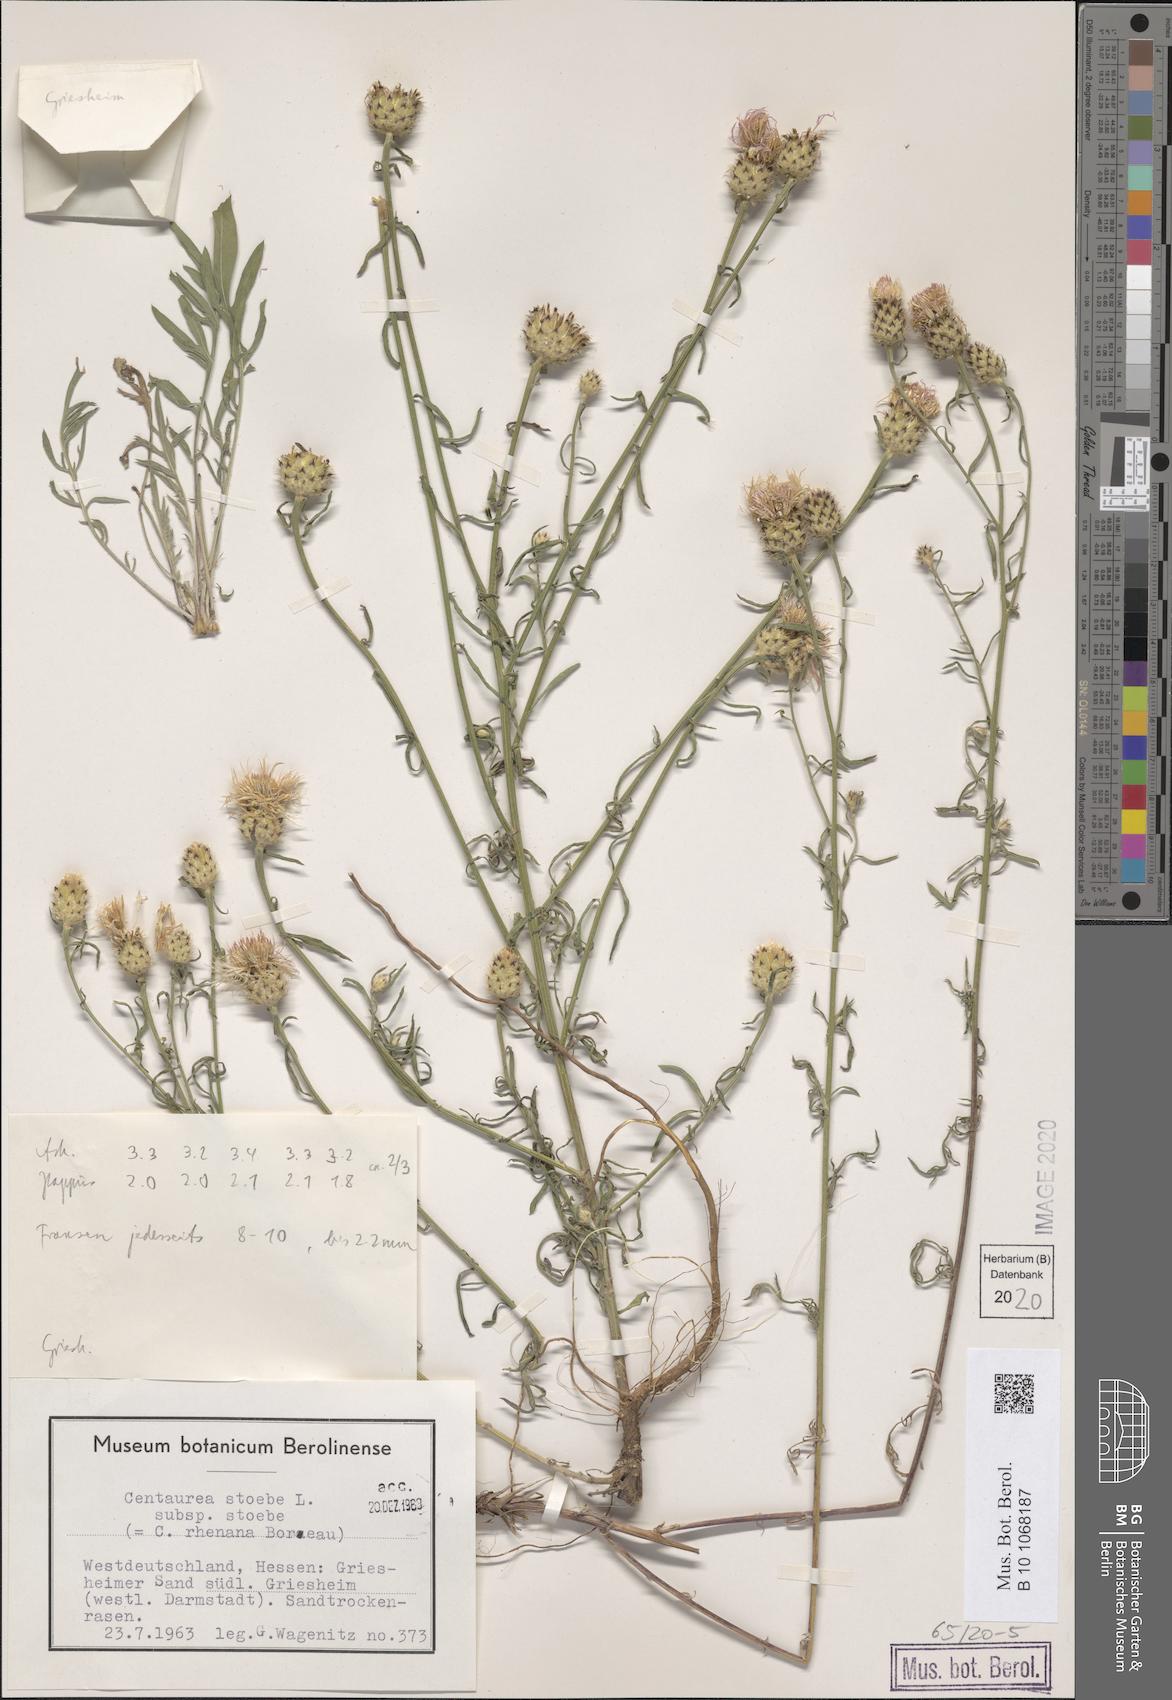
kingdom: Plantae
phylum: Tracheophyta
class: Magnoliopsida
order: Asterales
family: Asteraceae
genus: Centaurea
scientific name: Centaurea stoebe
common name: Spotted knapweed
